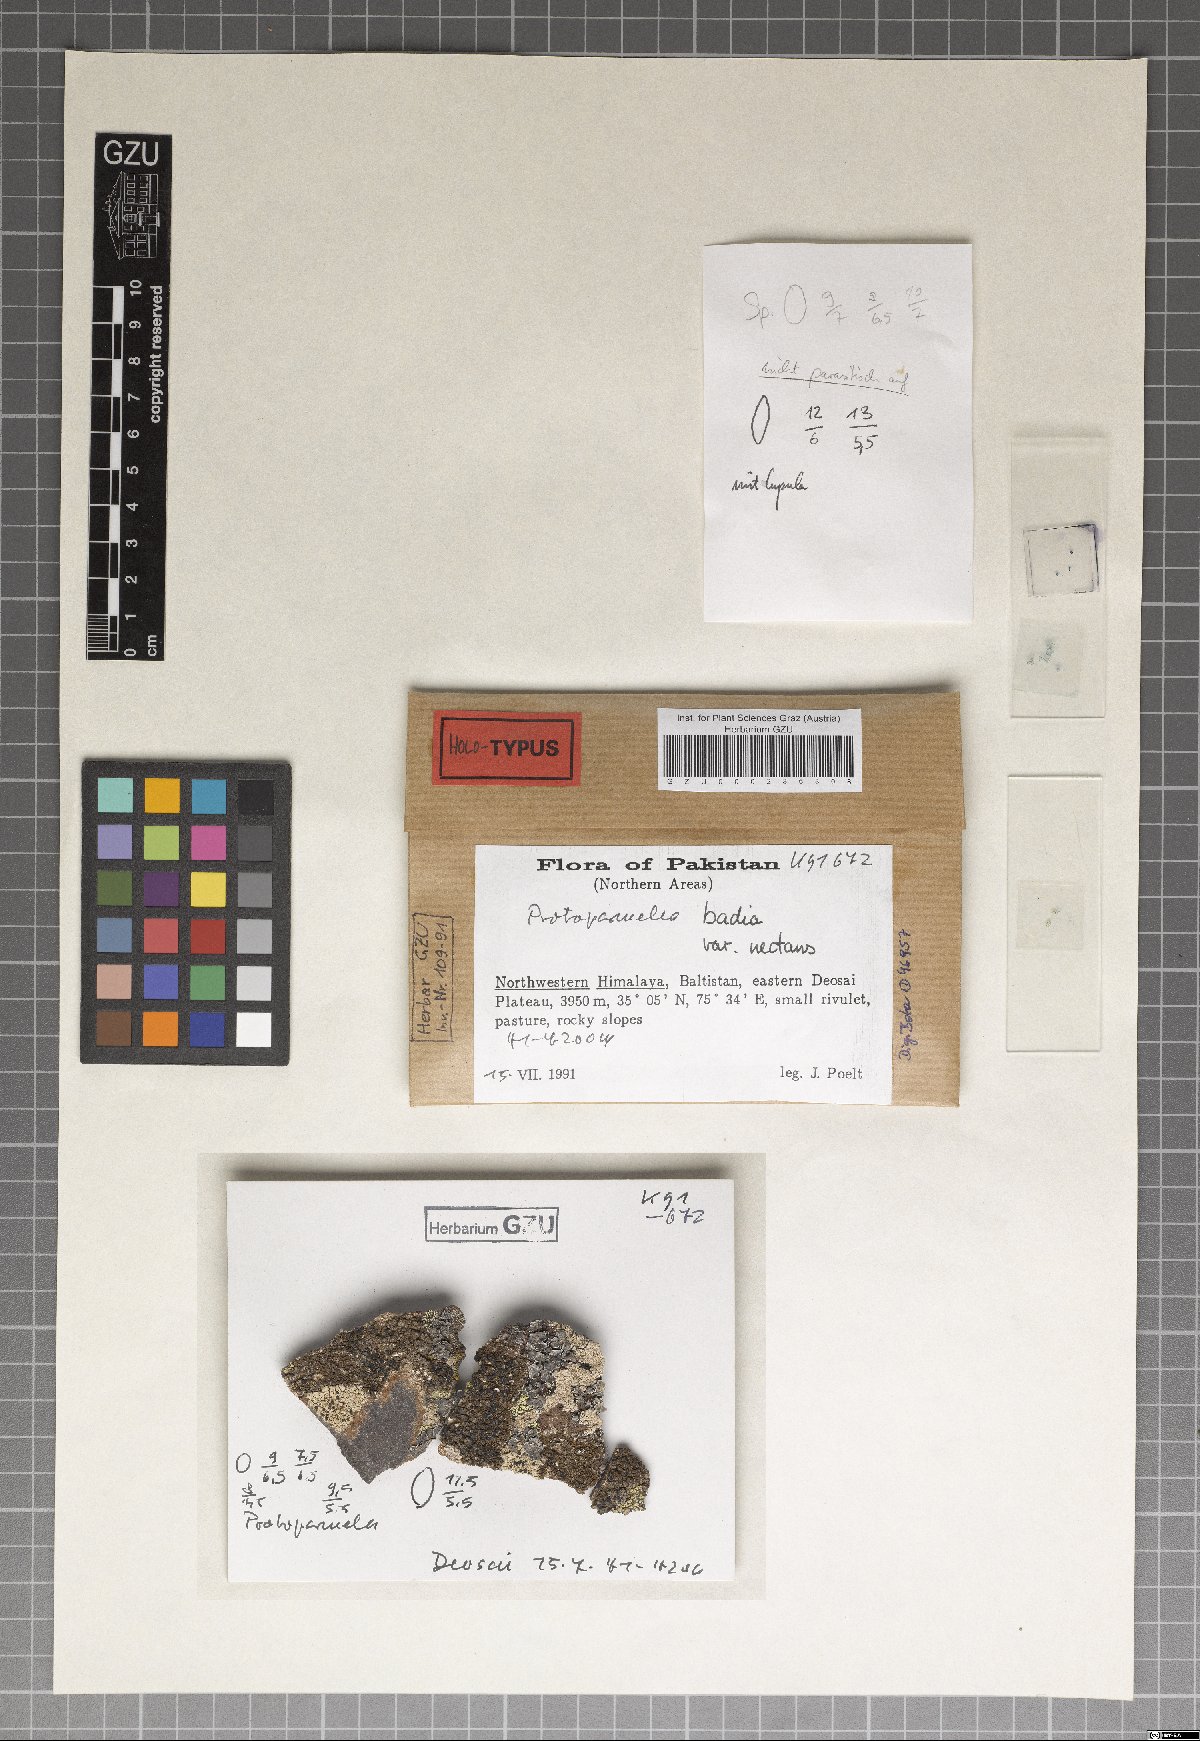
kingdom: Fungi
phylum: Ascomycota
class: Lecanoromycetes
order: Lecanorales
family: Parmeliaceae
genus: Protoparmelia
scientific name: Protoparmelia badia
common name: Chocolate rim lichen
